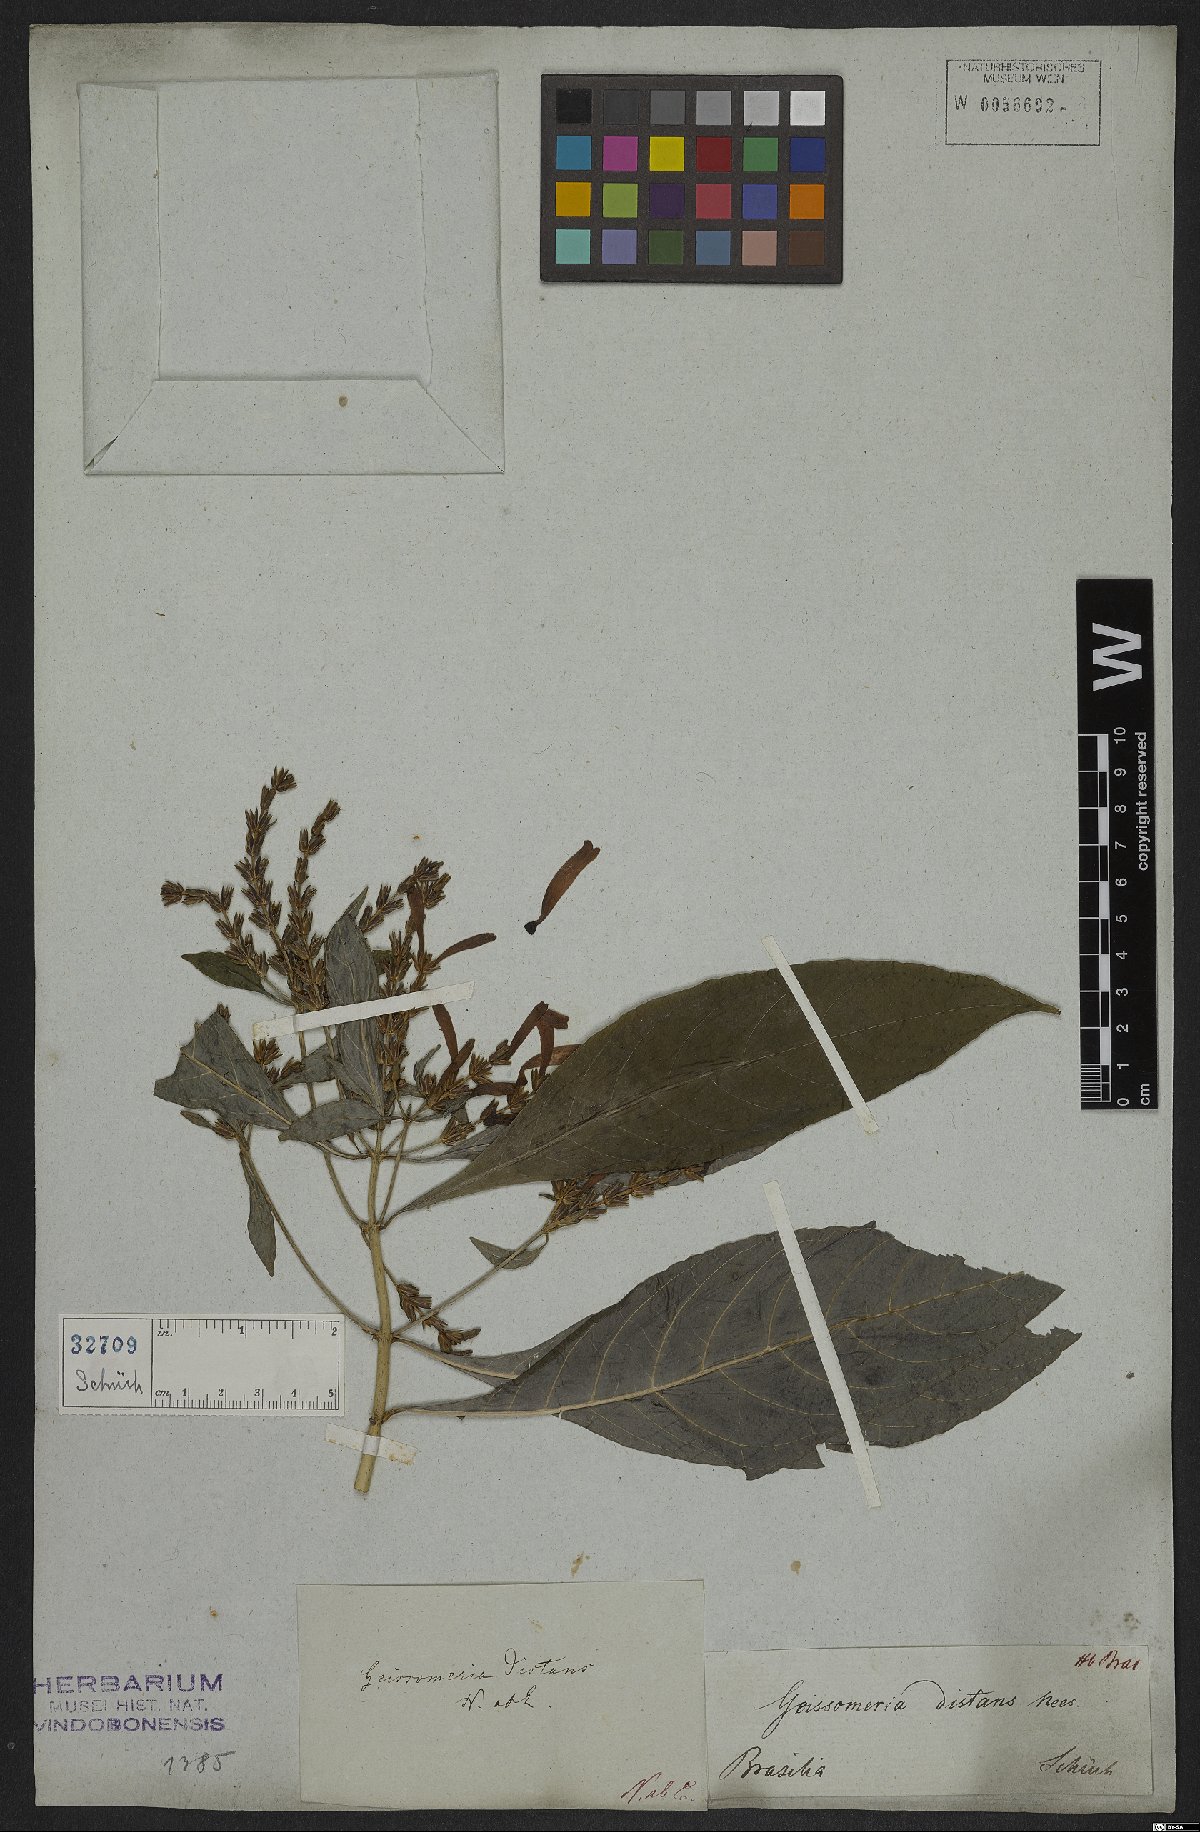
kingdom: Plantae
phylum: Tracheophyta
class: Magnoliopsida
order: Lamiales
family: Acanthaceae
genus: Aphelandra
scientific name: Aphelandra longiflora
